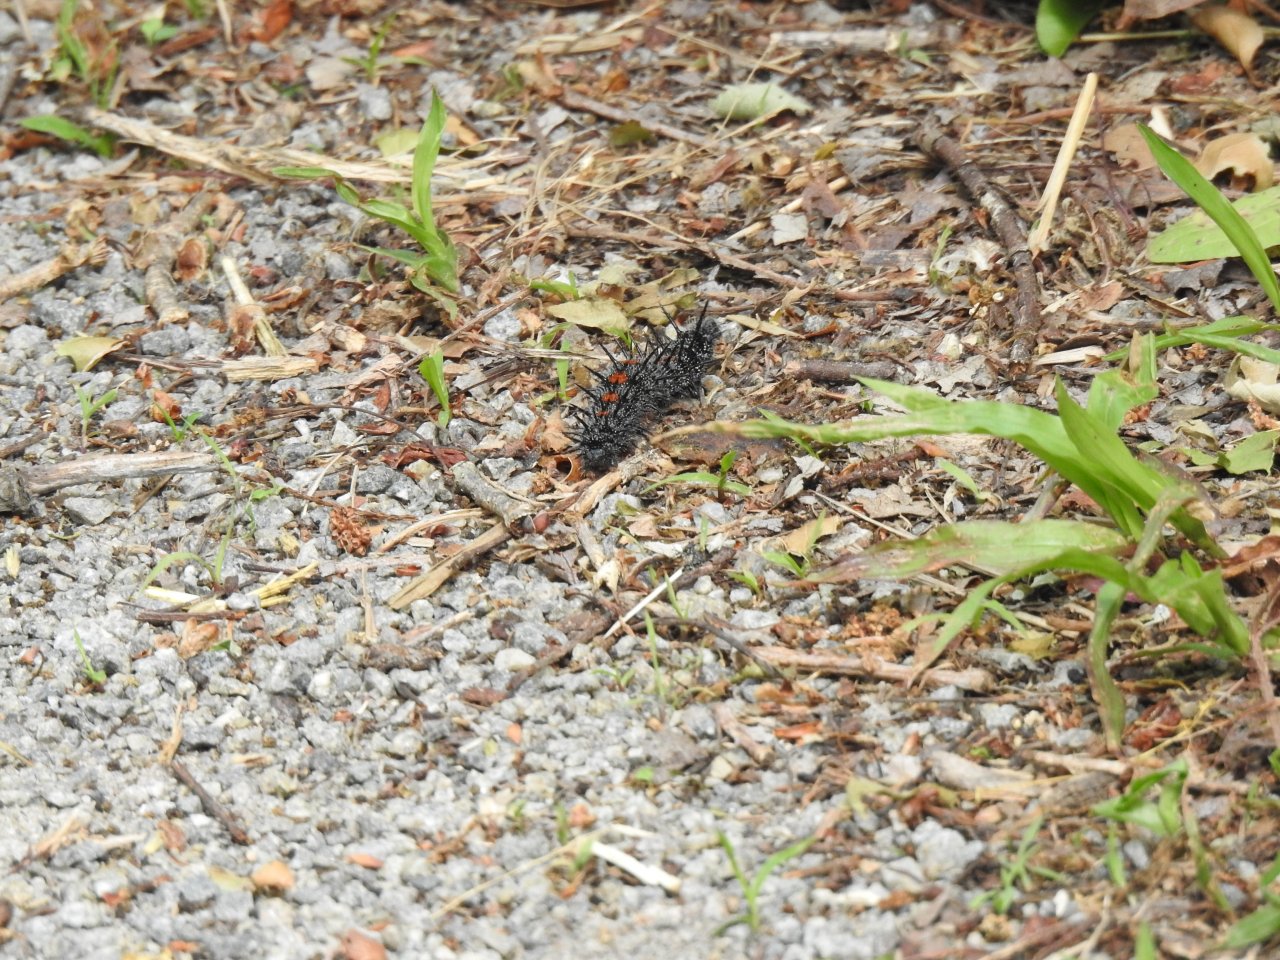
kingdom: Animalia
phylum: Arthropoda
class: Insecta
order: Lepidoptera
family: Nymphalidae
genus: Nymphalis
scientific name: Nymphalis antiopa
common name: Mourning Cloak
